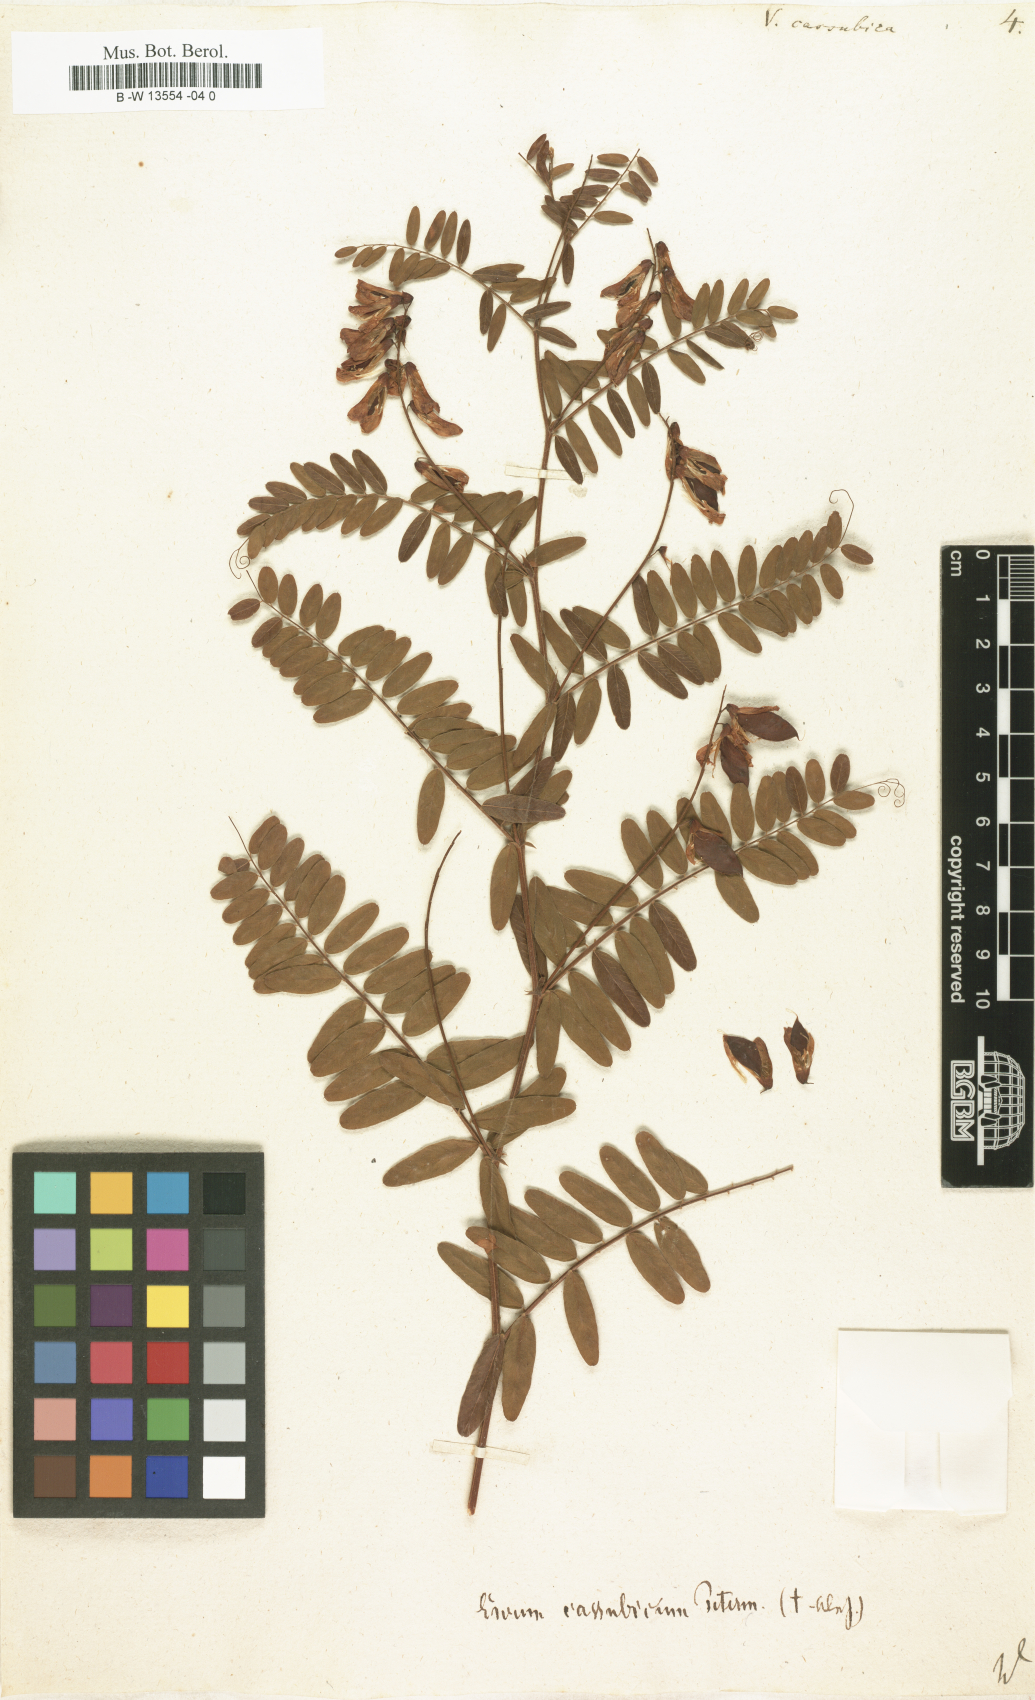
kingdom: Plantae
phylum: Tracheophyta
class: Magnoliopsida
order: Fabales
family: Fabaceae
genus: Vicia
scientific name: Vicia cassubica
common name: Danzig vetch
